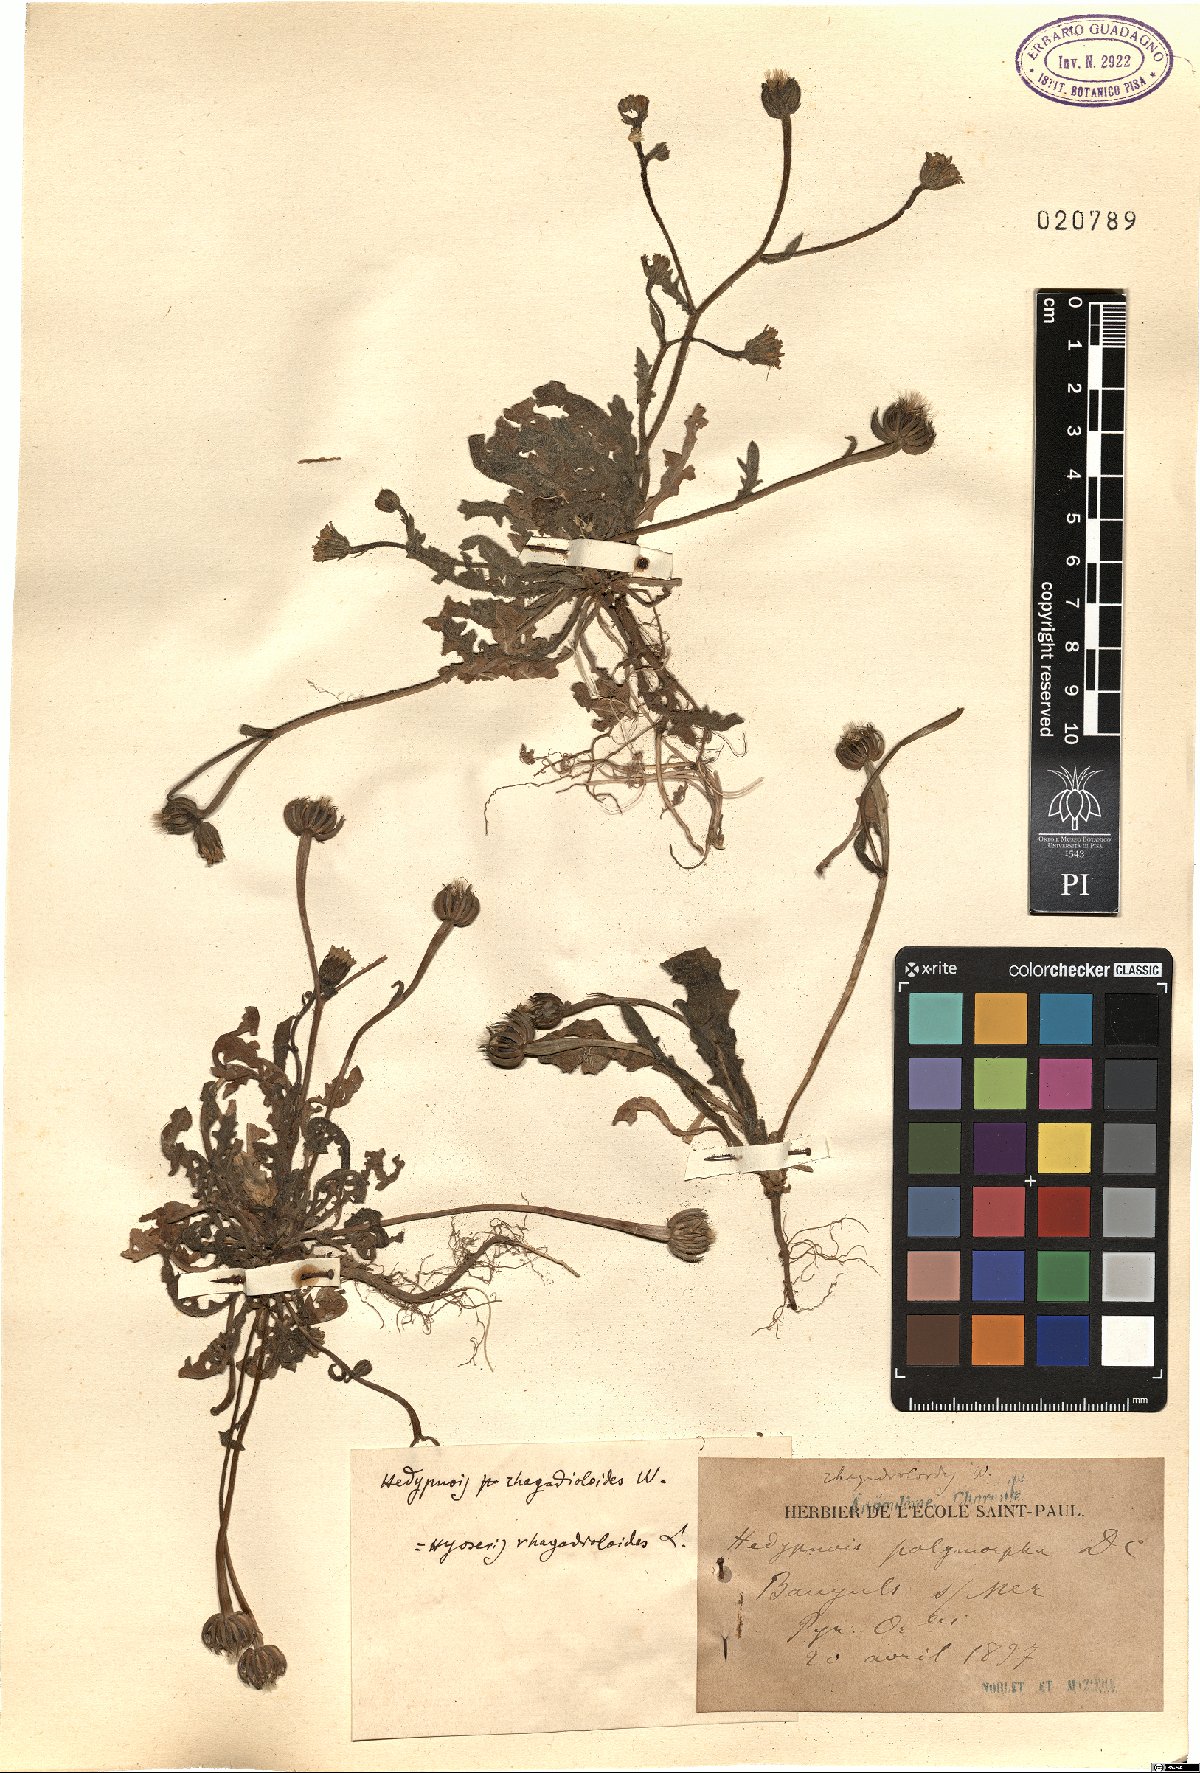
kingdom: Plantae
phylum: Tracheophyta
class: Magnoliopsida
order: Asterales
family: Asteraceae
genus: Hedypnois
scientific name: Hedypnois rhagadioloides
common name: Cretan weed
